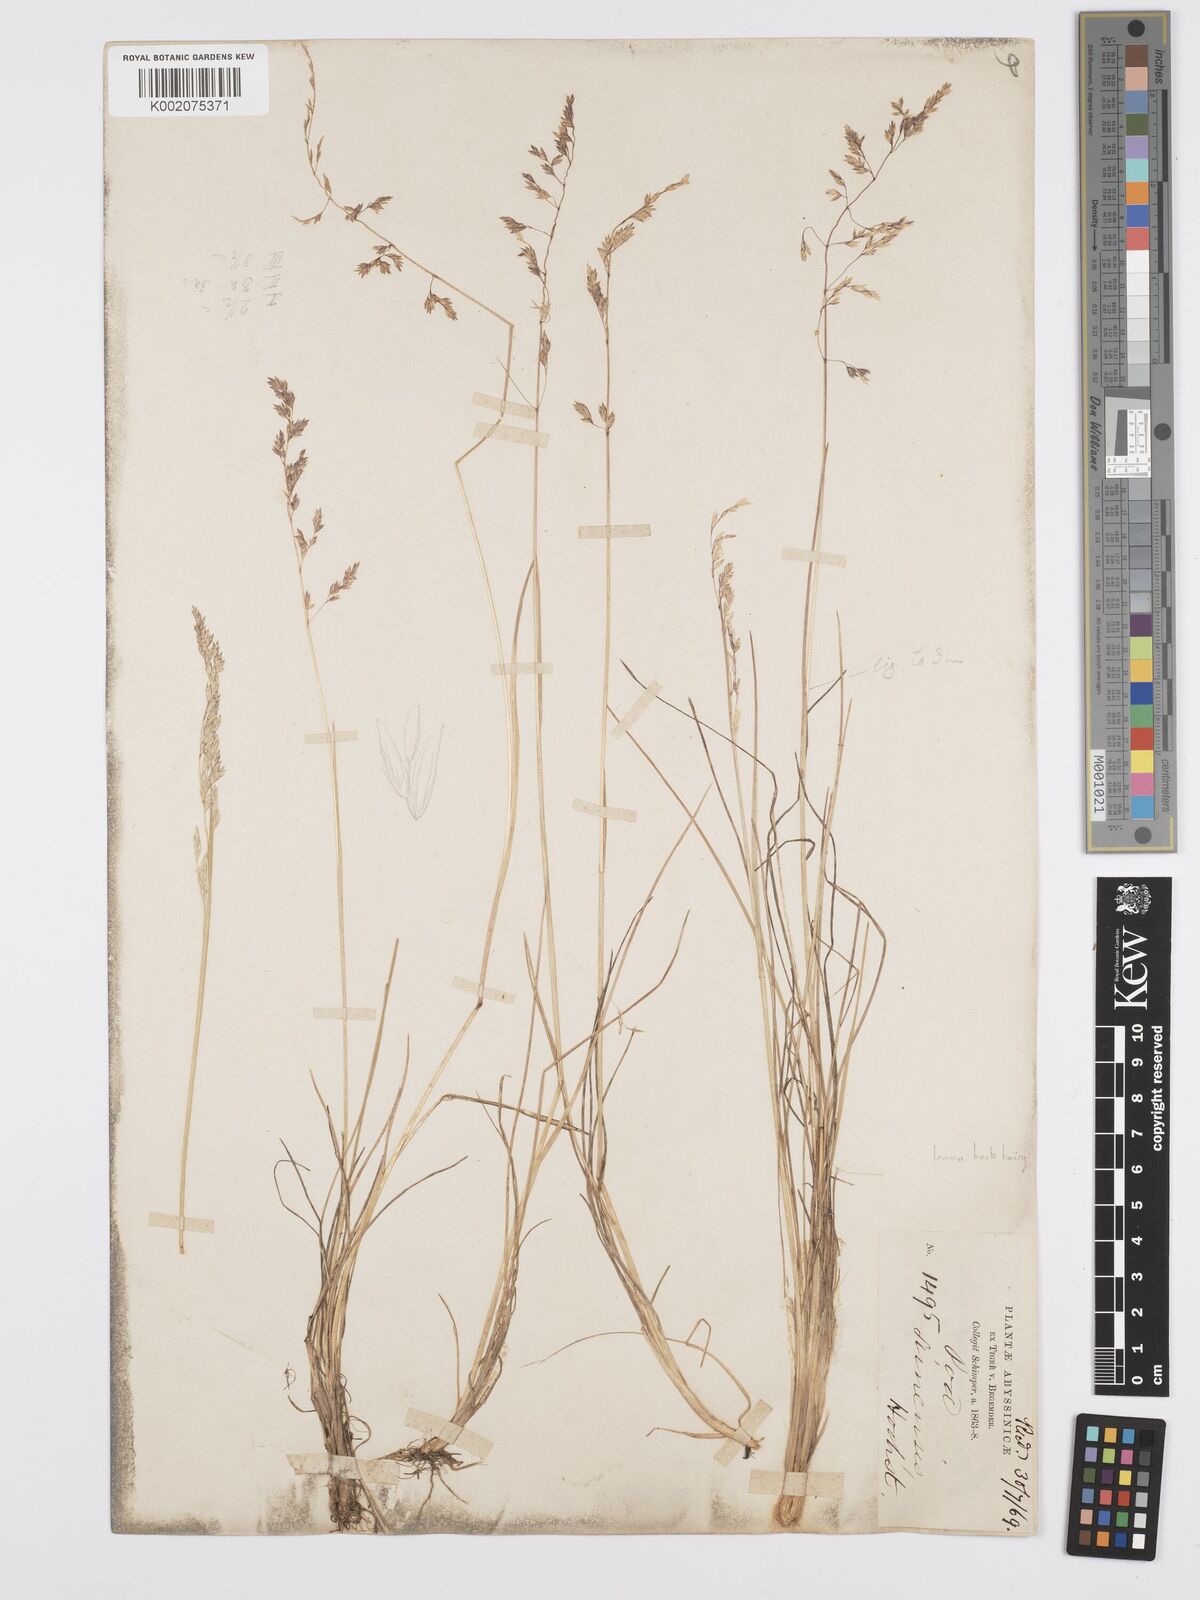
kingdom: Plantae
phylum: Tracheophyta
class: Liliopsida
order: Poales
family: Poaceae
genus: Poa
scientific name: Poa simensis
